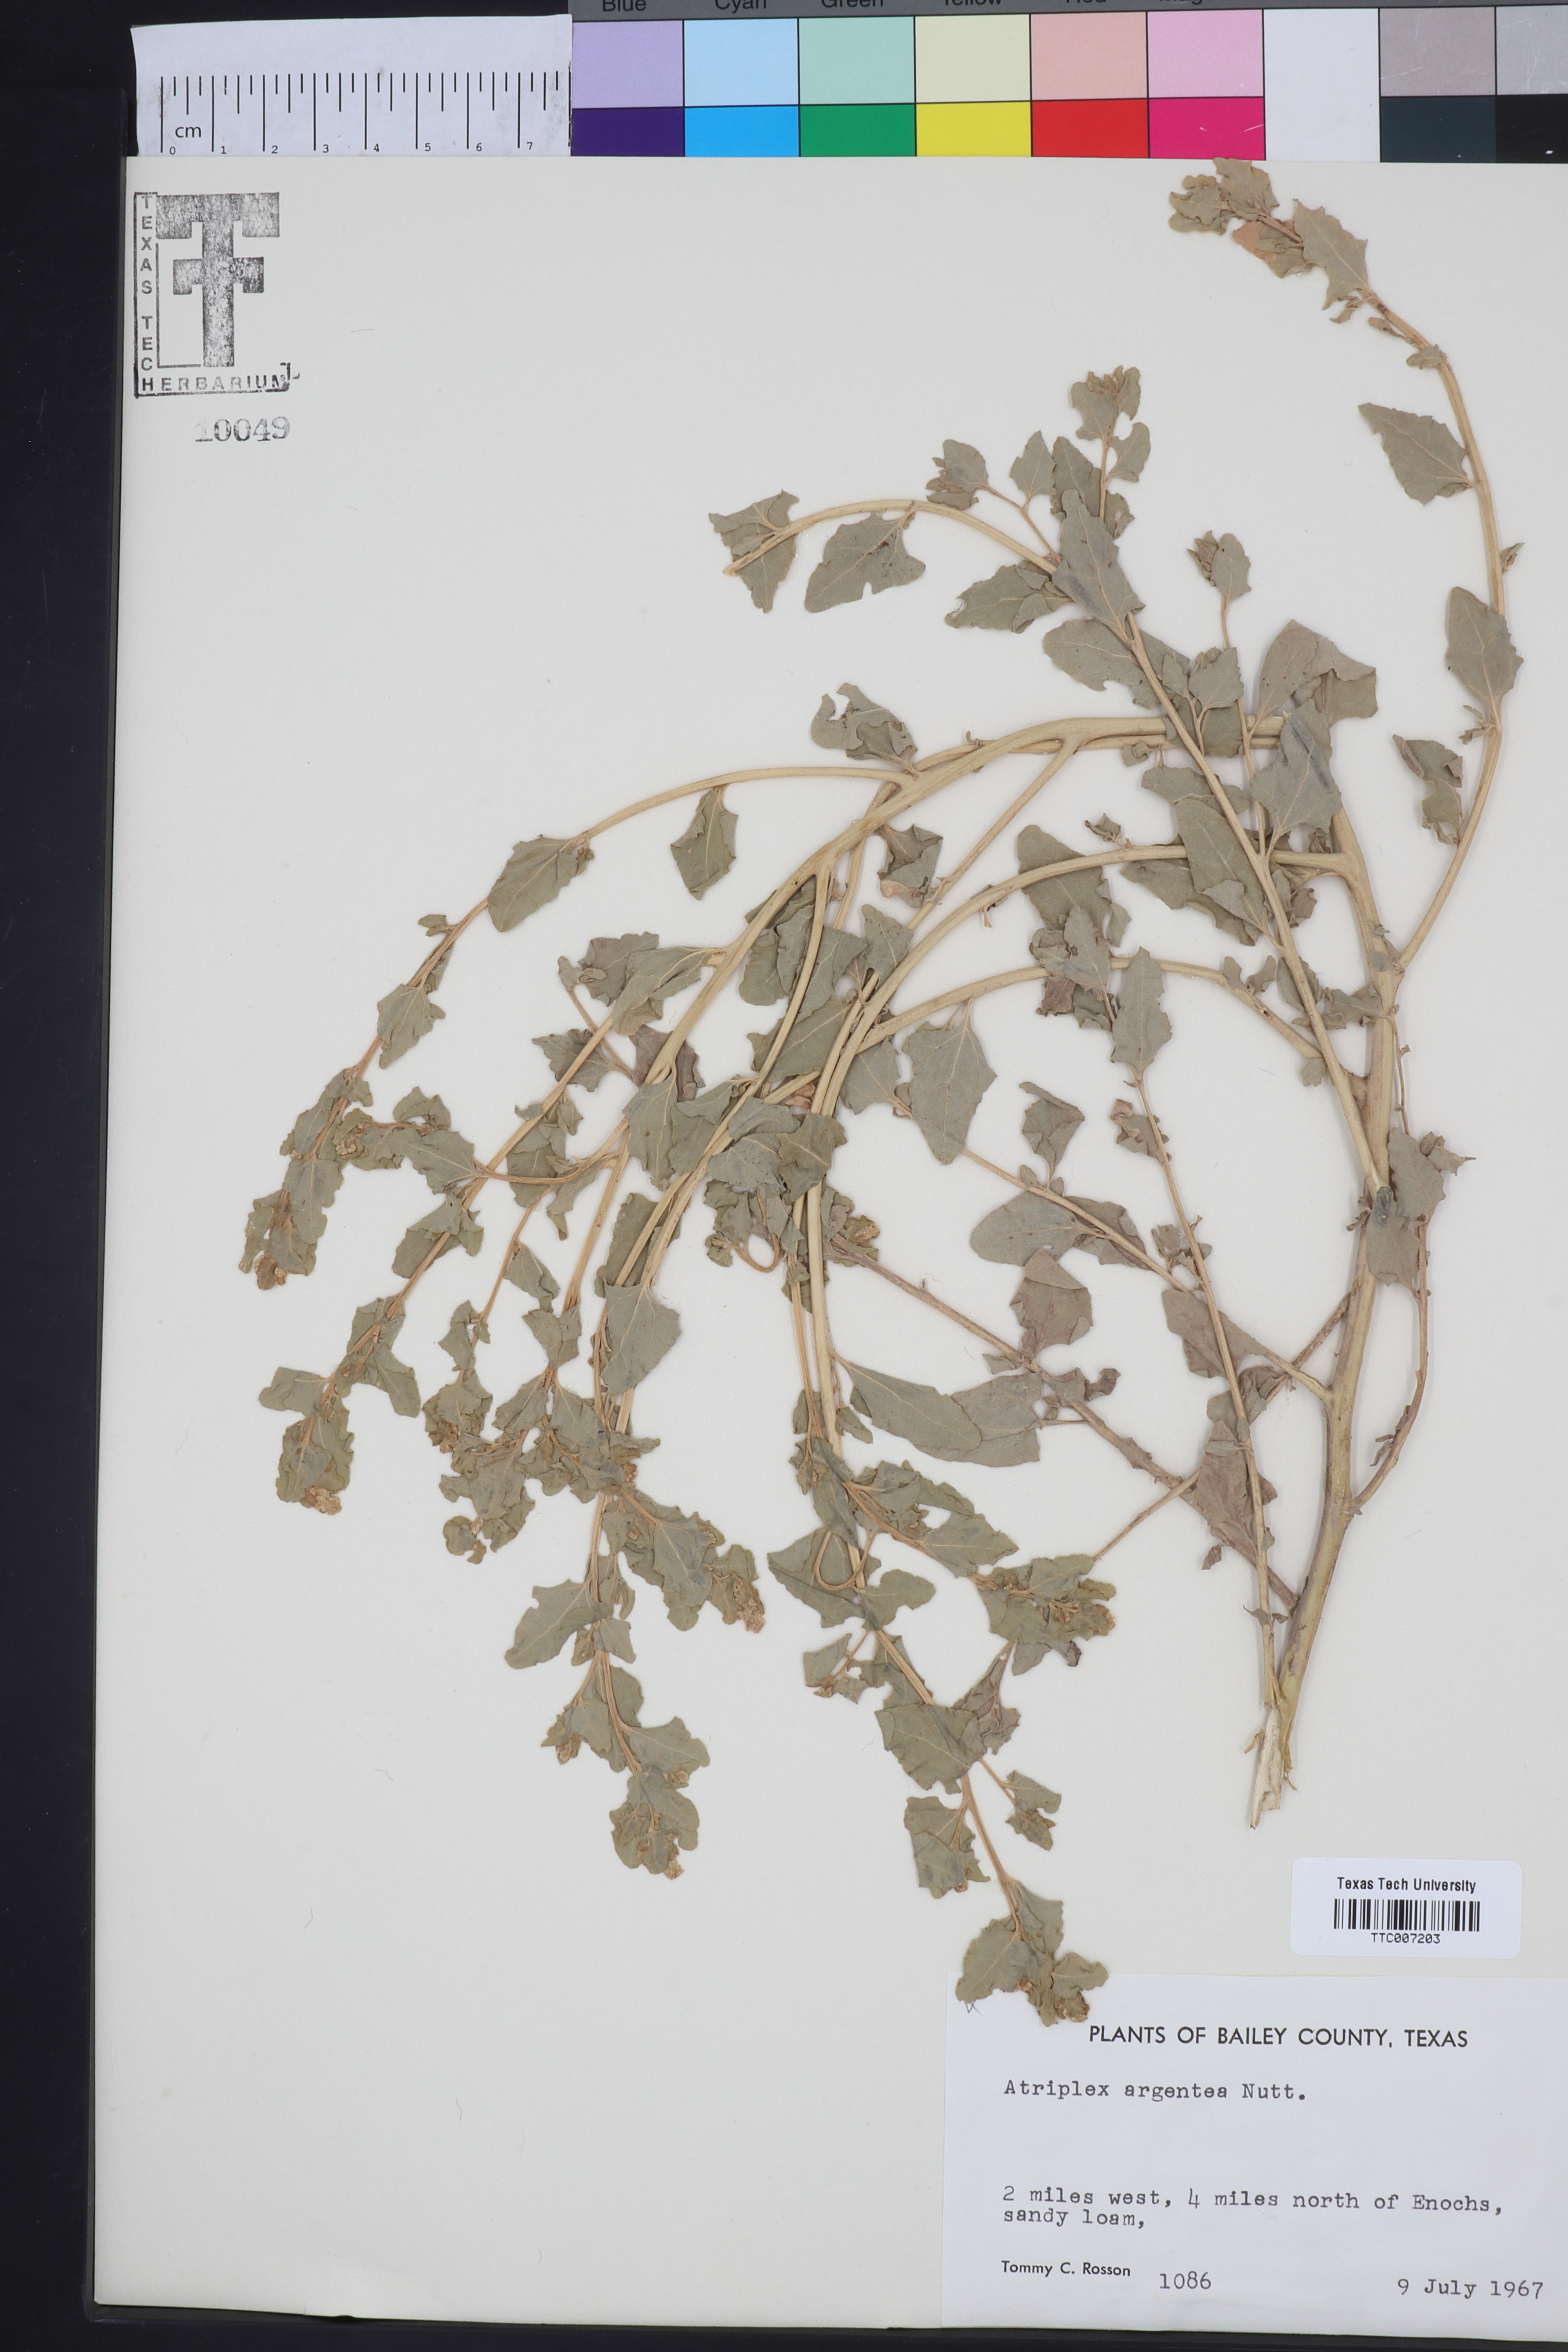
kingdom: Plantae
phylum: Tracheophyta
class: Magnoliopsida
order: Caryophyllales
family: Amaranthaceae
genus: Atriplex
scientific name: Atriplex argentea
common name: Silverscale
